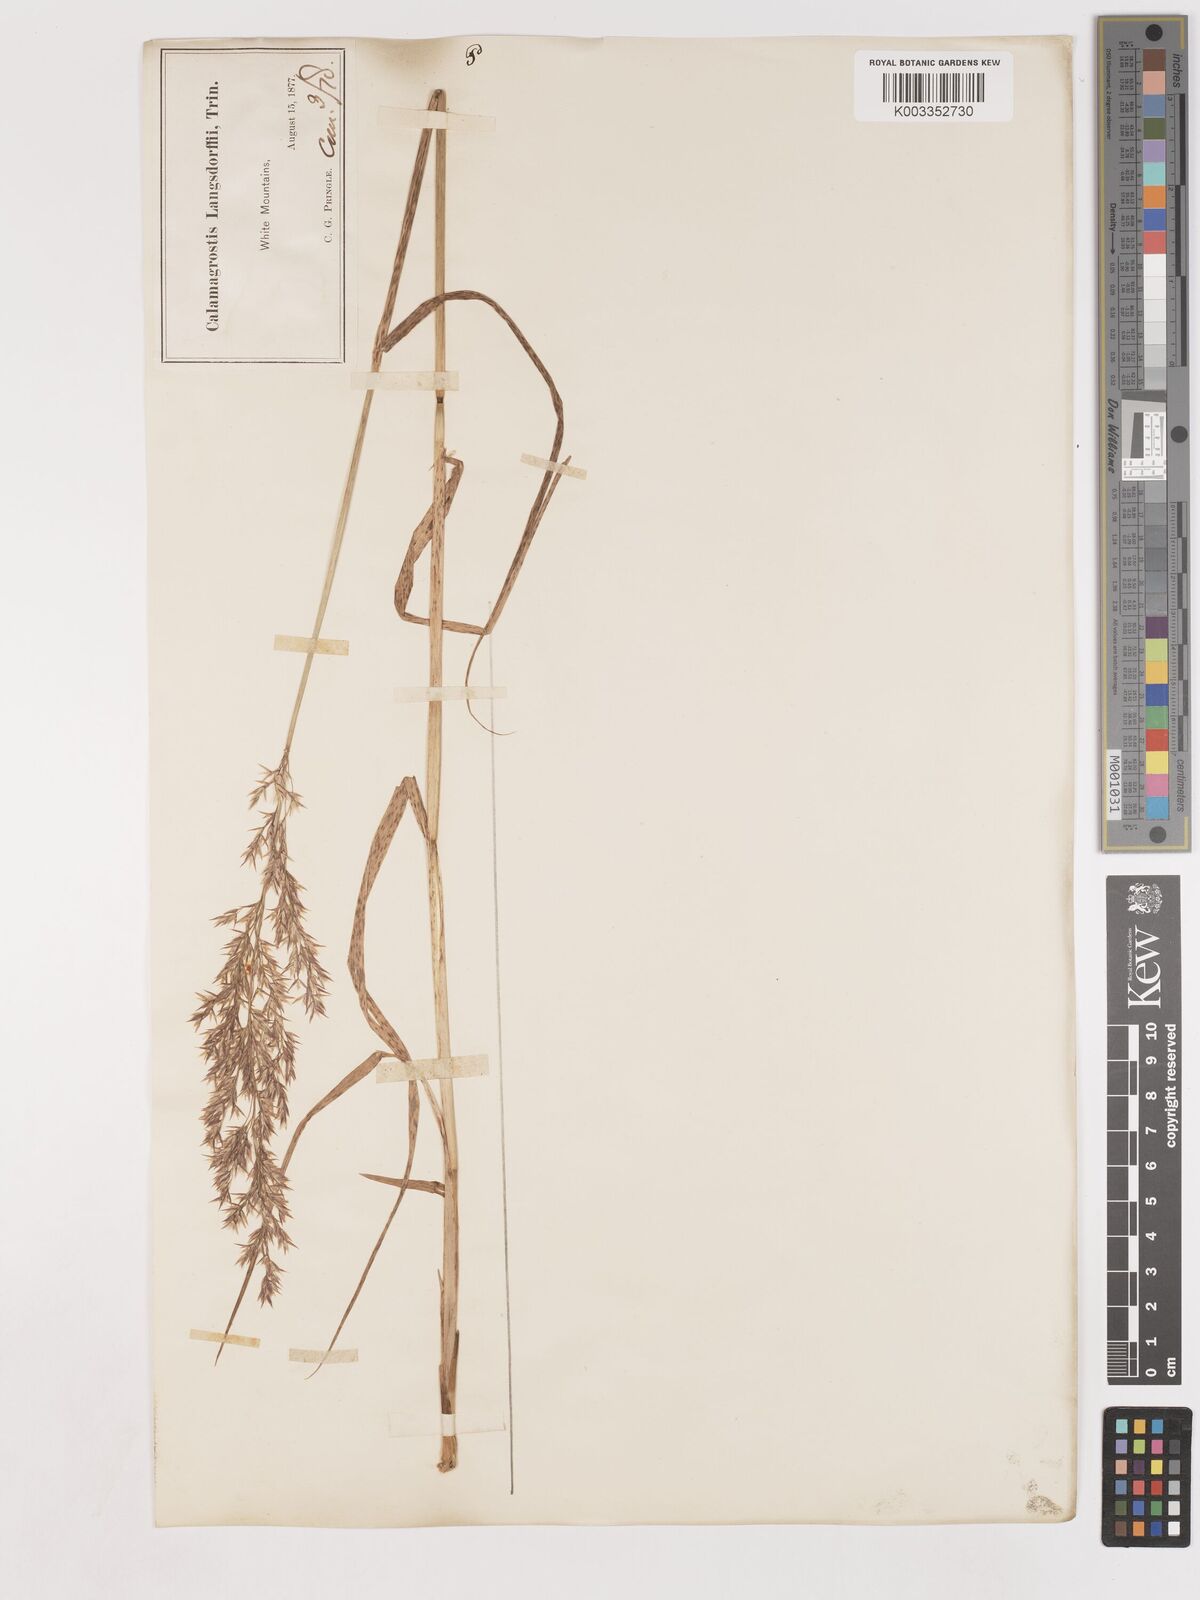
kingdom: Plantae
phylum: Tracheophyta
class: Liliopsida
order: Poales
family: Poaceae
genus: Calamagrostis
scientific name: Calamagrostis canadensis
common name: Canada bluejoint
